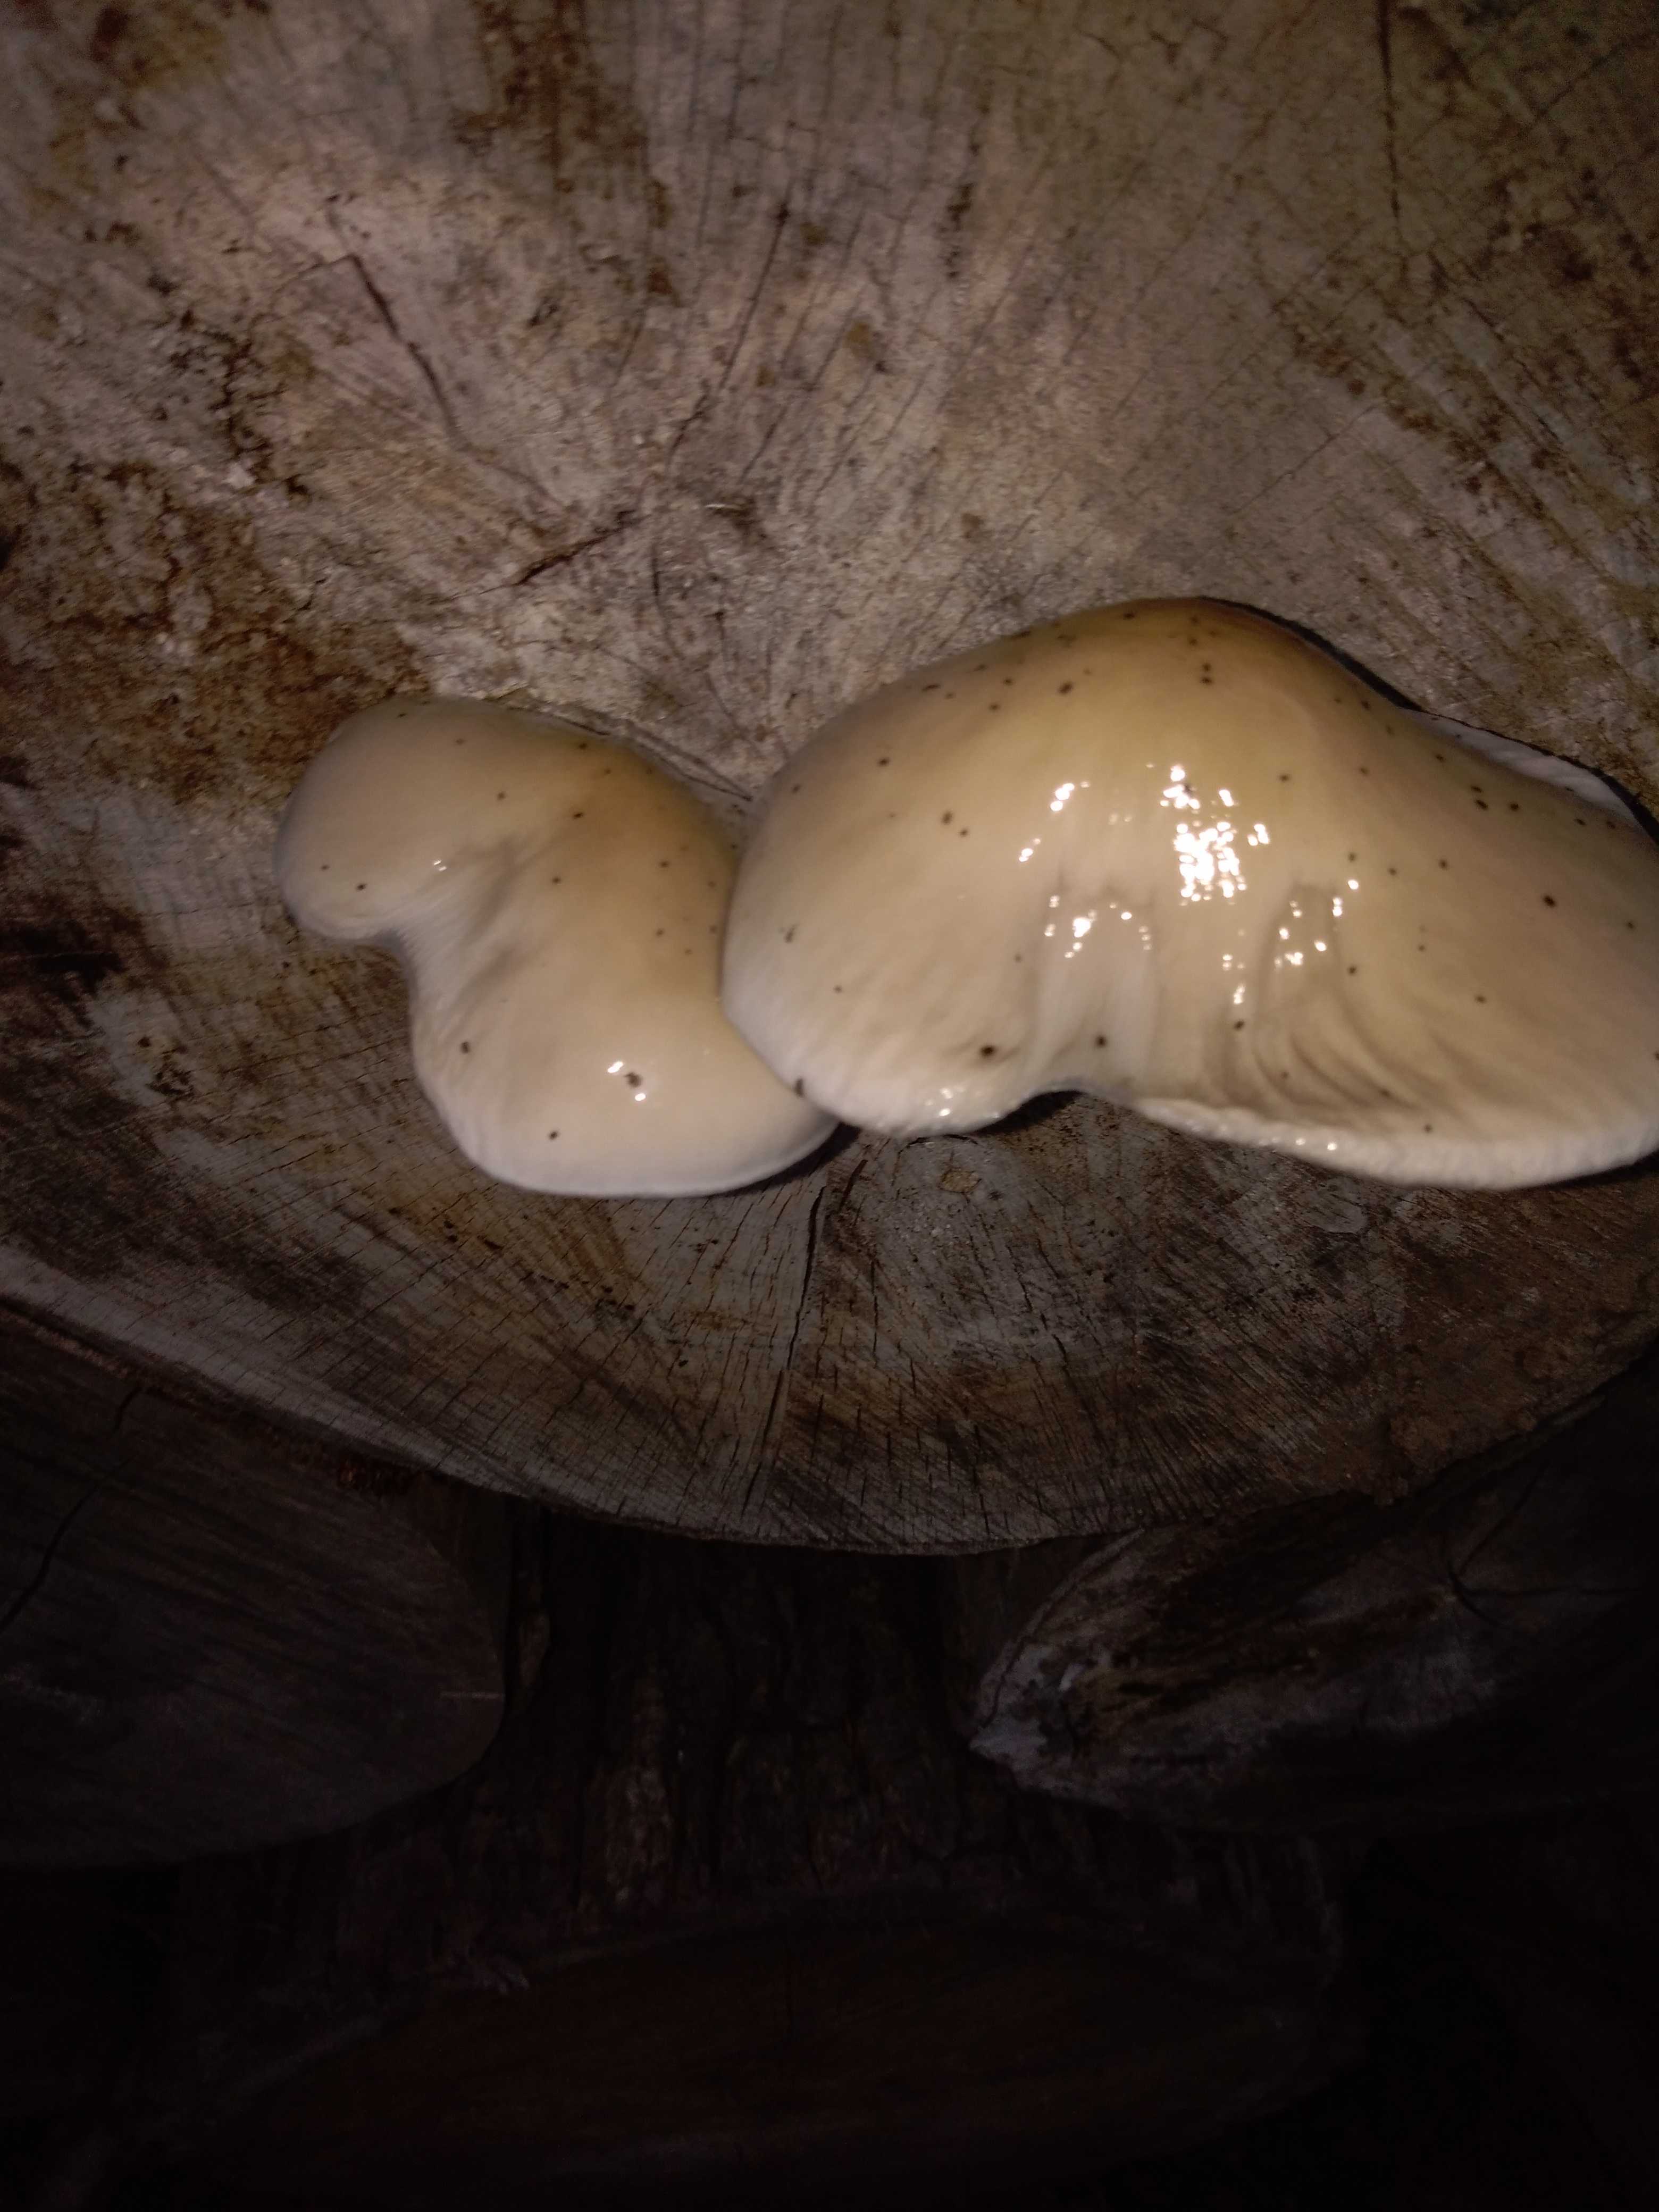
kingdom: Fungi
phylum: Basidiomycota
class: Agaricomycetes
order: Agaricales
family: Physalacriaceae
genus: Mucidula
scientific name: Mucidula mucida
